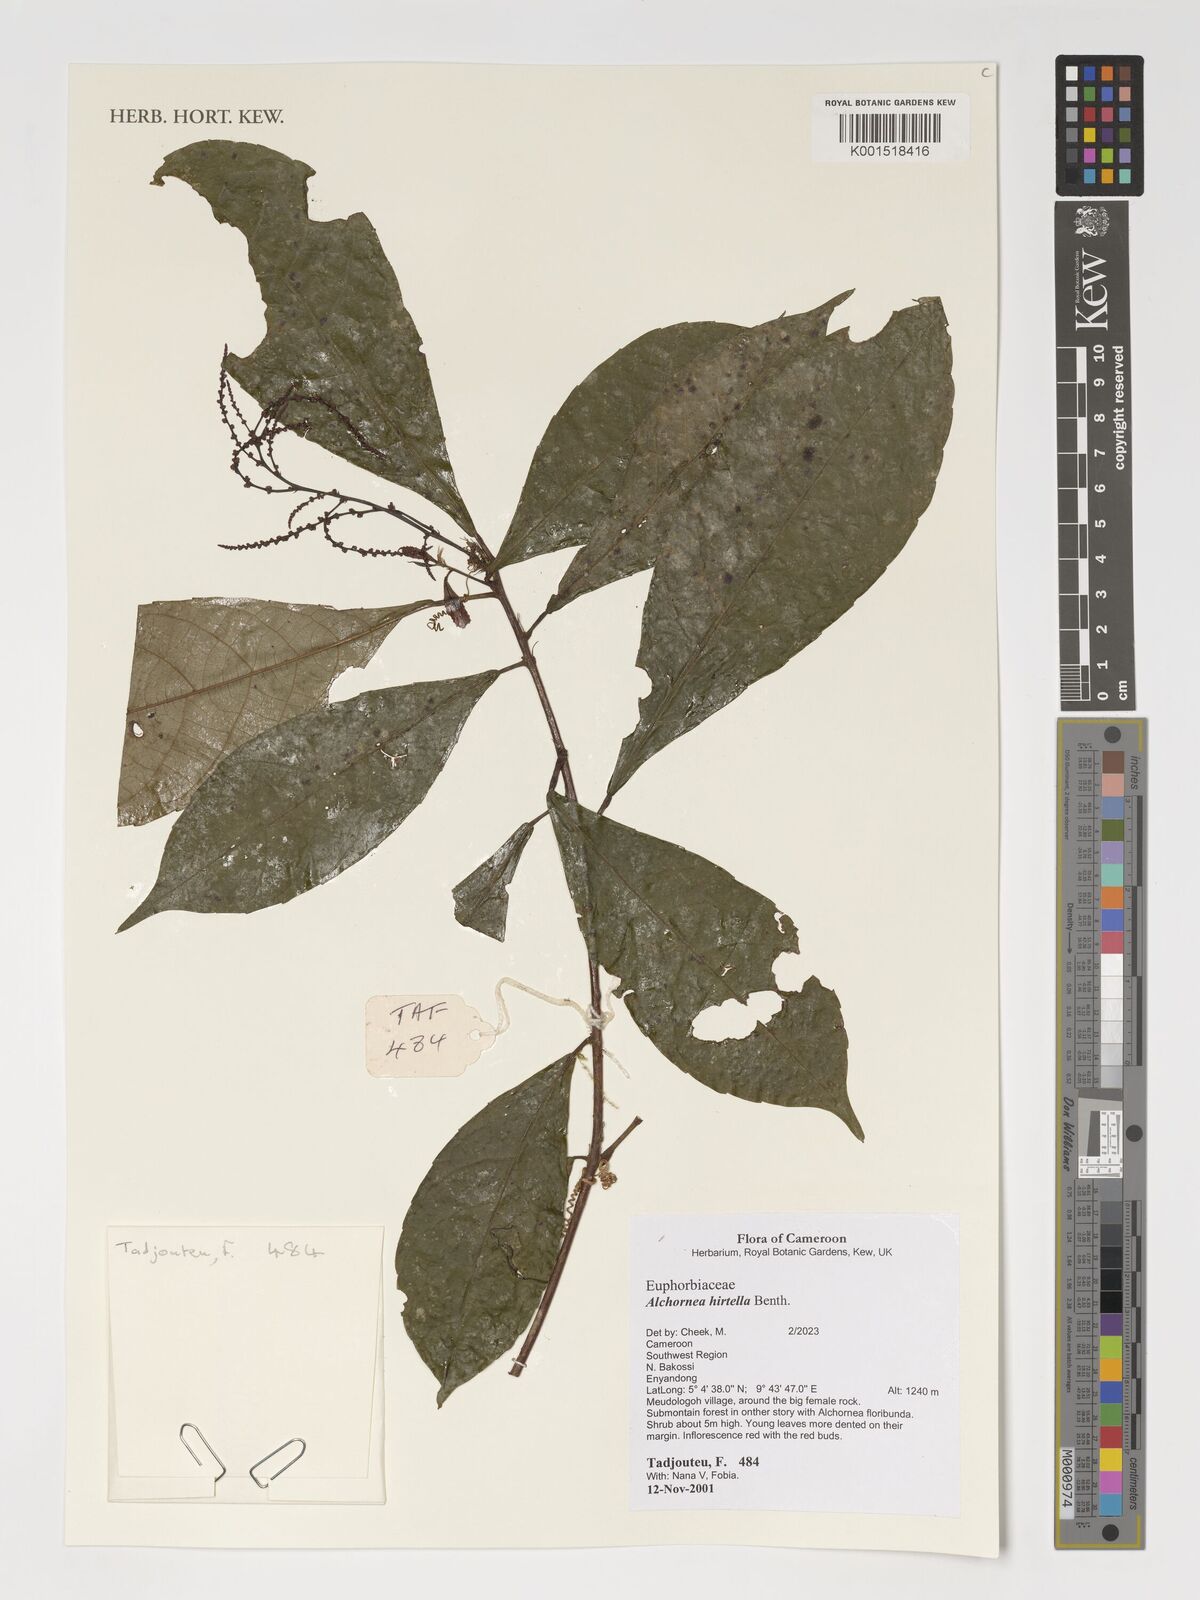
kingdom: Plantae
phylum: Tracheophyta
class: Magnoliopsida
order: Malpighiales
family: Euphorbiaceae
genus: Alchornea
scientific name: Alchornea hirtella
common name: Forest bead-string
